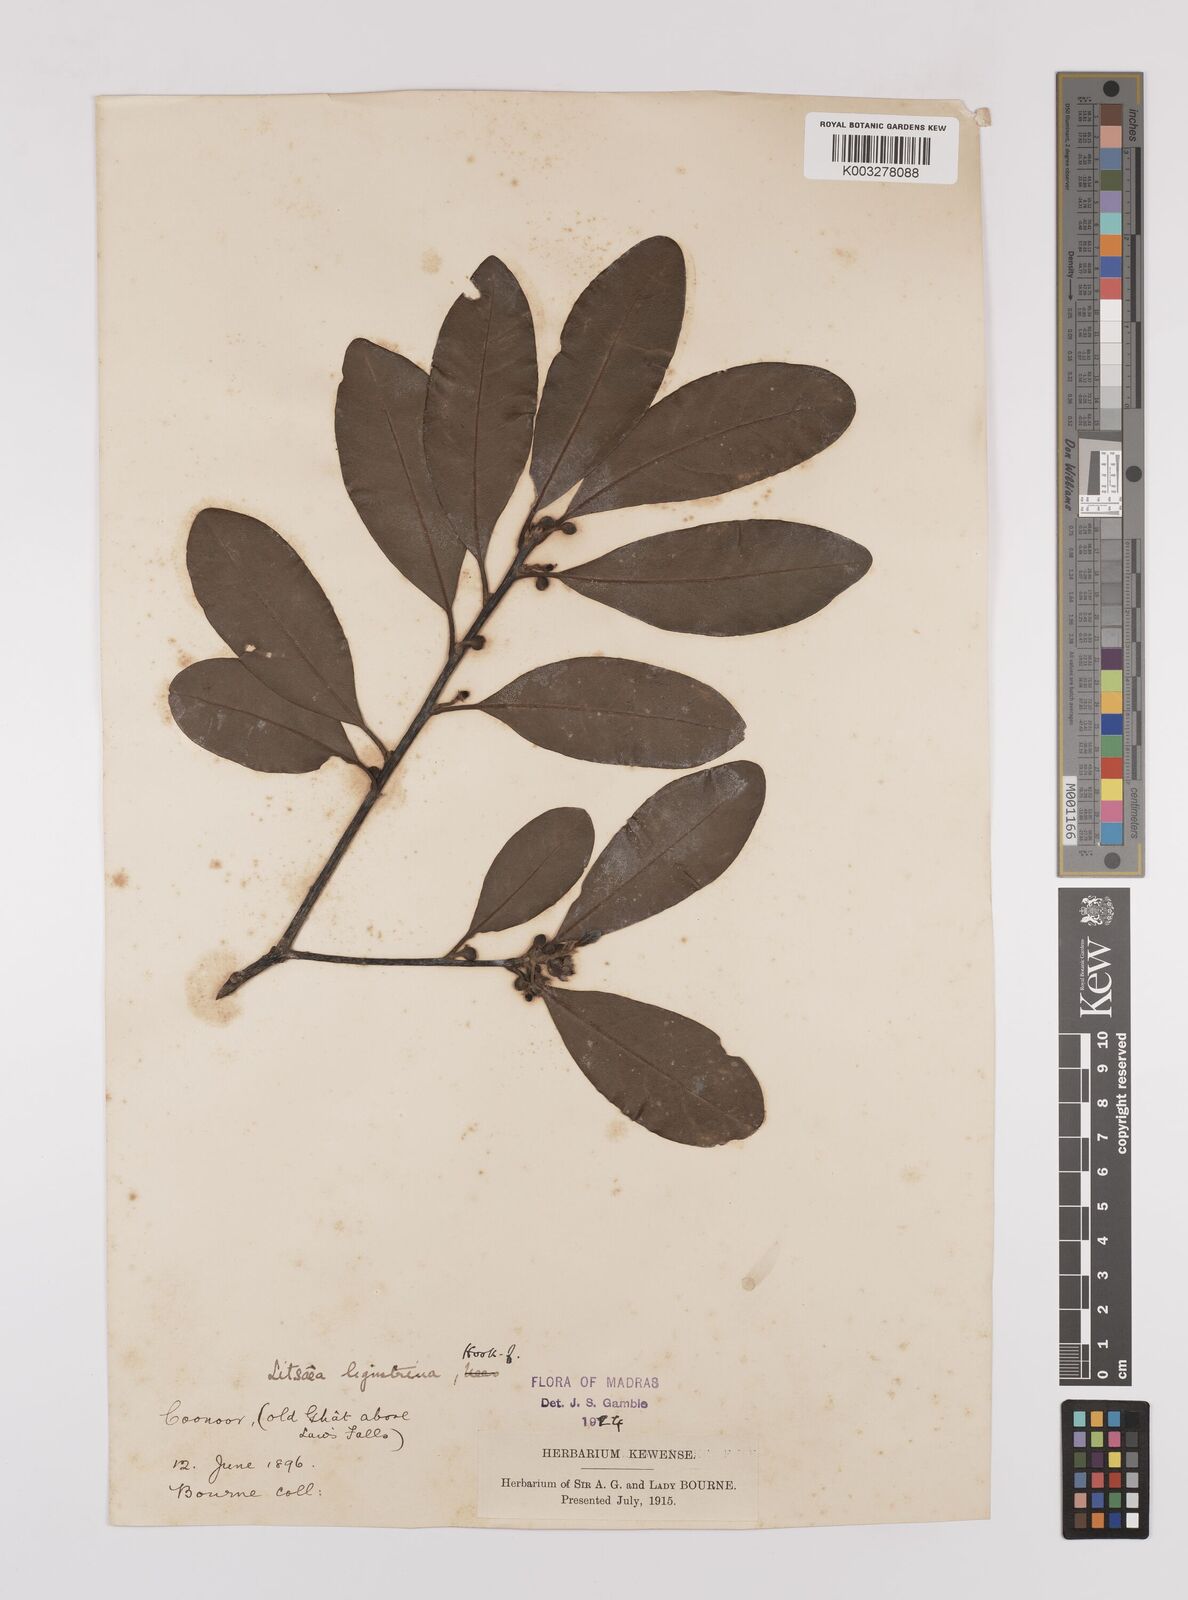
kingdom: Plantae
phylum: Tracheophyta
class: Magnoliopsida
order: Laurales
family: Lauraceae
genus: Litsea
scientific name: Litsea ligustrina
